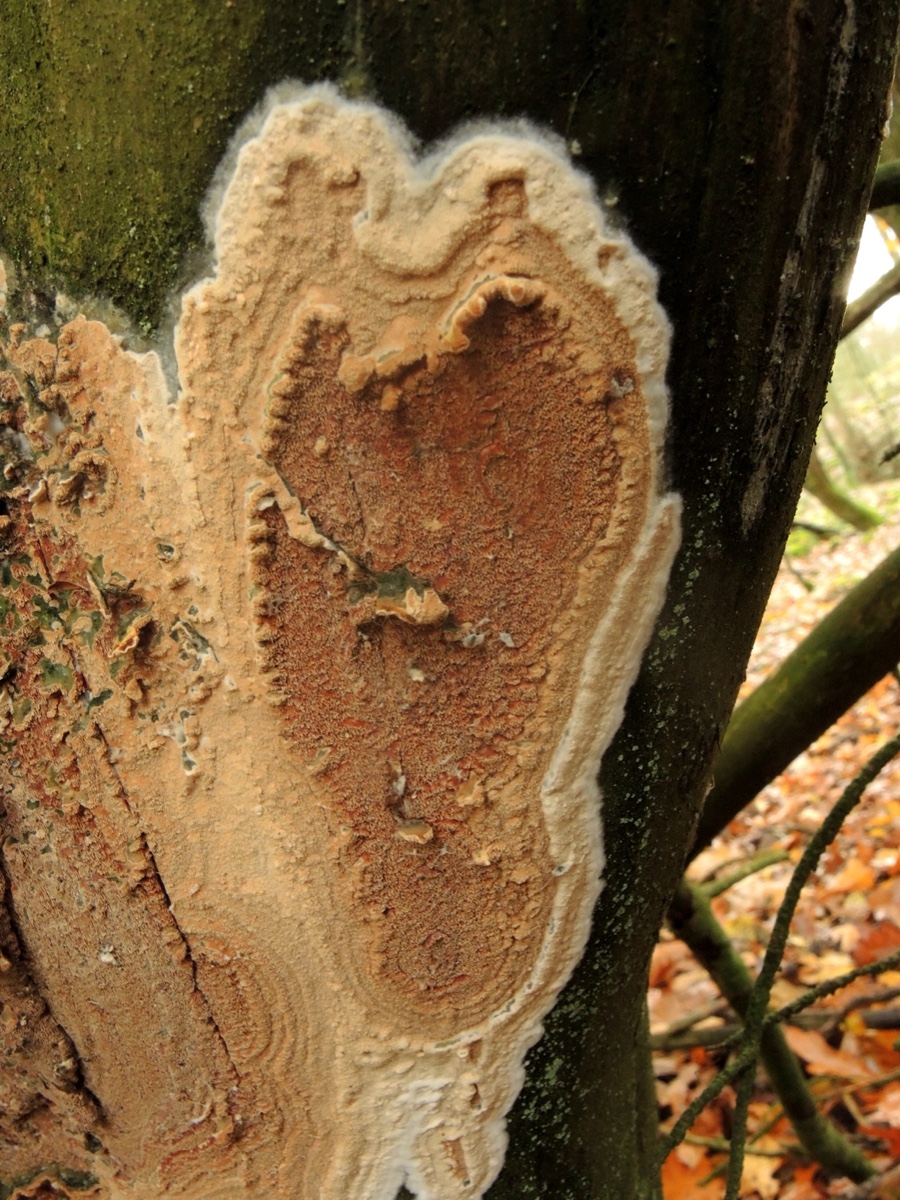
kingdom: Fungi
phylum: Basidiomycota
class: Agaricomycetes
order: Polyporales
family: Irpicaceae
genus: Meruliopsis
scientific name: Meruliopsis taxicola
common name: purpurbrun foldporesvamp
